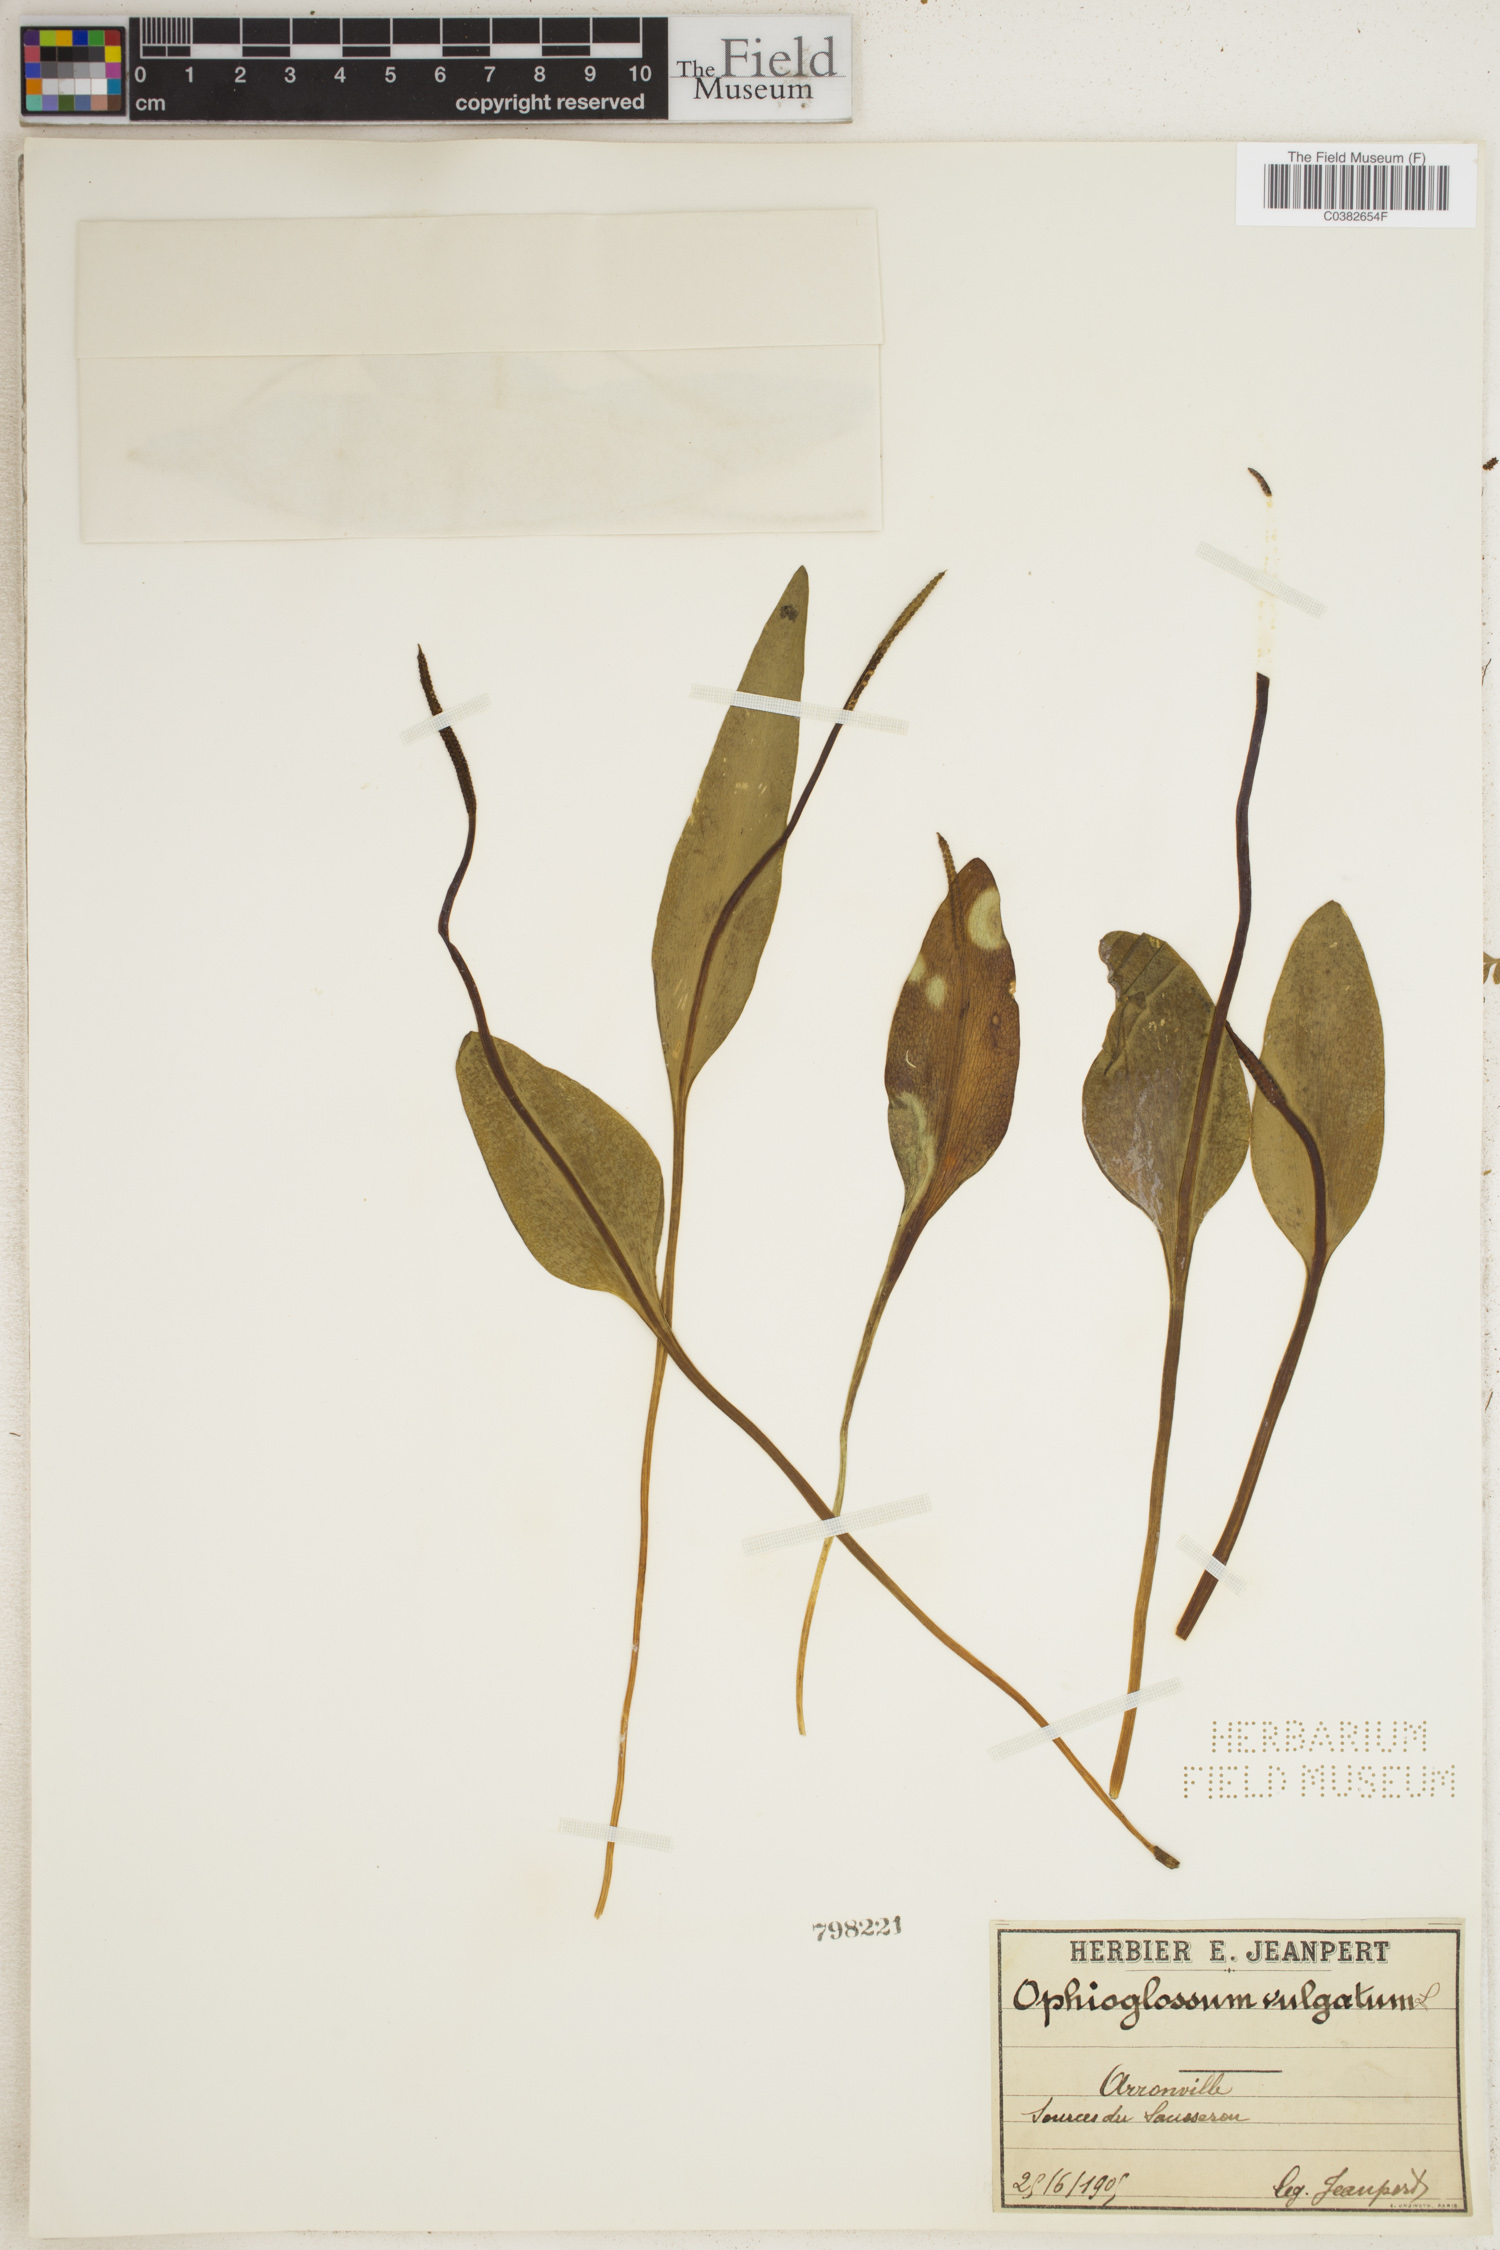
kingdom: Plantae
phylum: Tracheophyta
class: Polypodiopsida
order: Ophioglossales
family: Ophioglossaceae
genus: Ophioglossum
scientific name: Ophioglossum vulgatum
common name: Adder's-tongue
